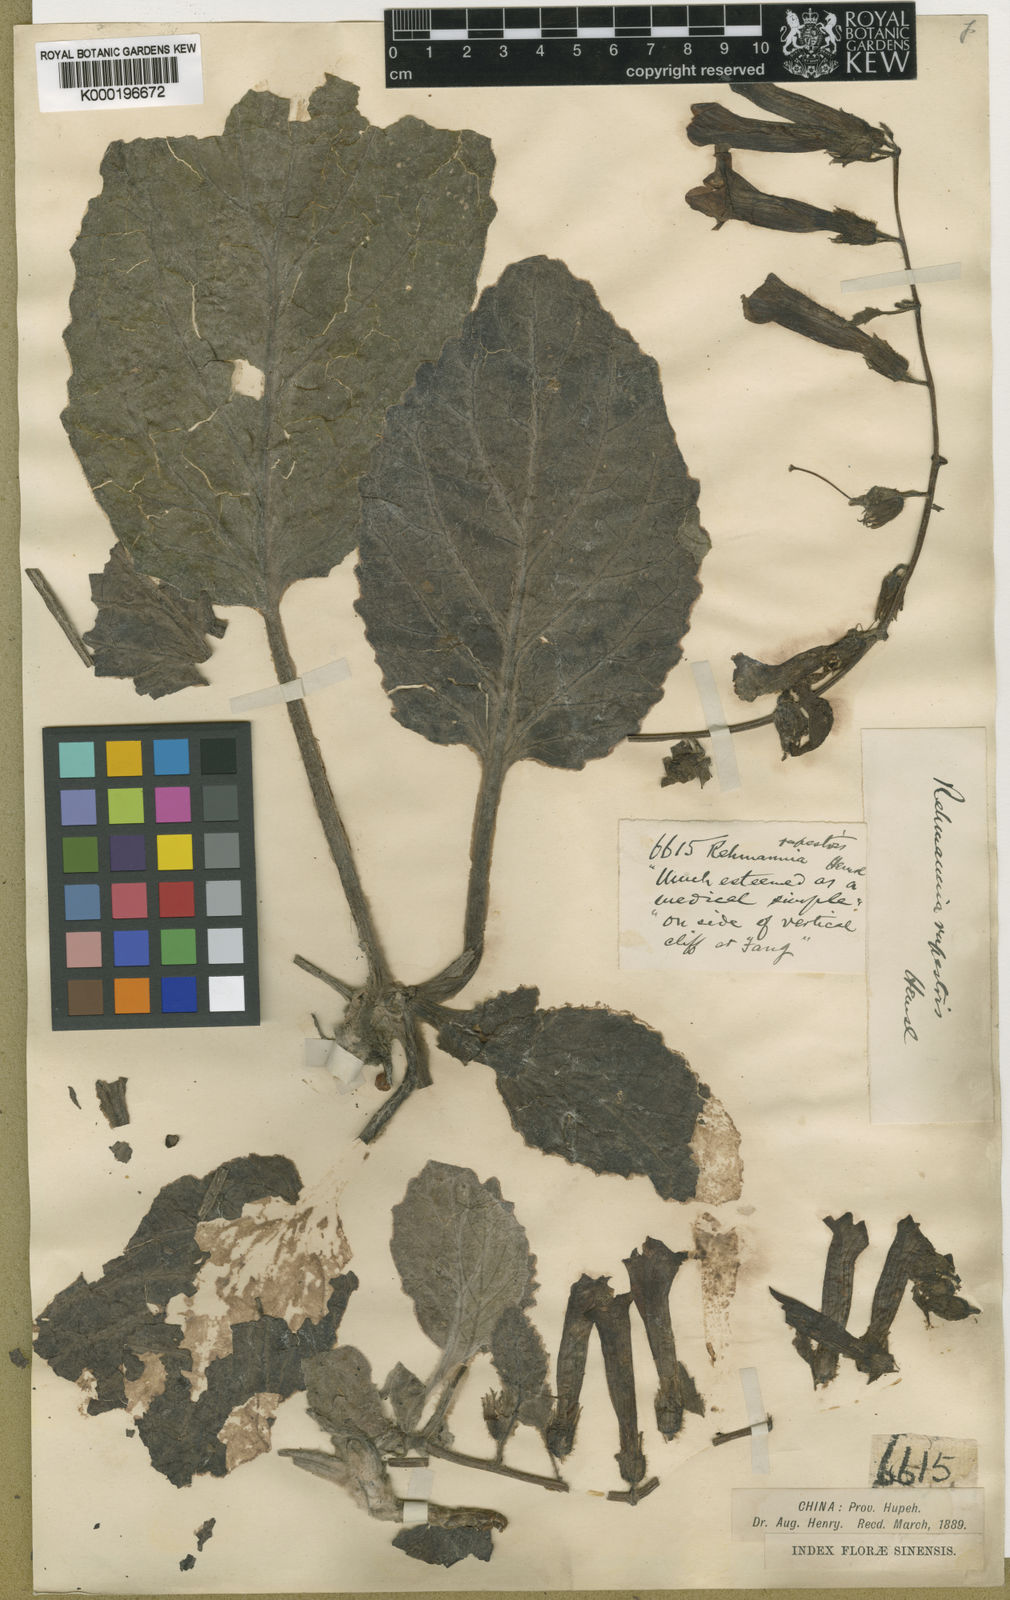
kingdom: Plantae
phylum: Tracheophyta
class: Magnoliopsida
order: Lamiales
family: Rehmanniaceae
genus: Triaenophora
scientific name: Triaenophora rupestris
